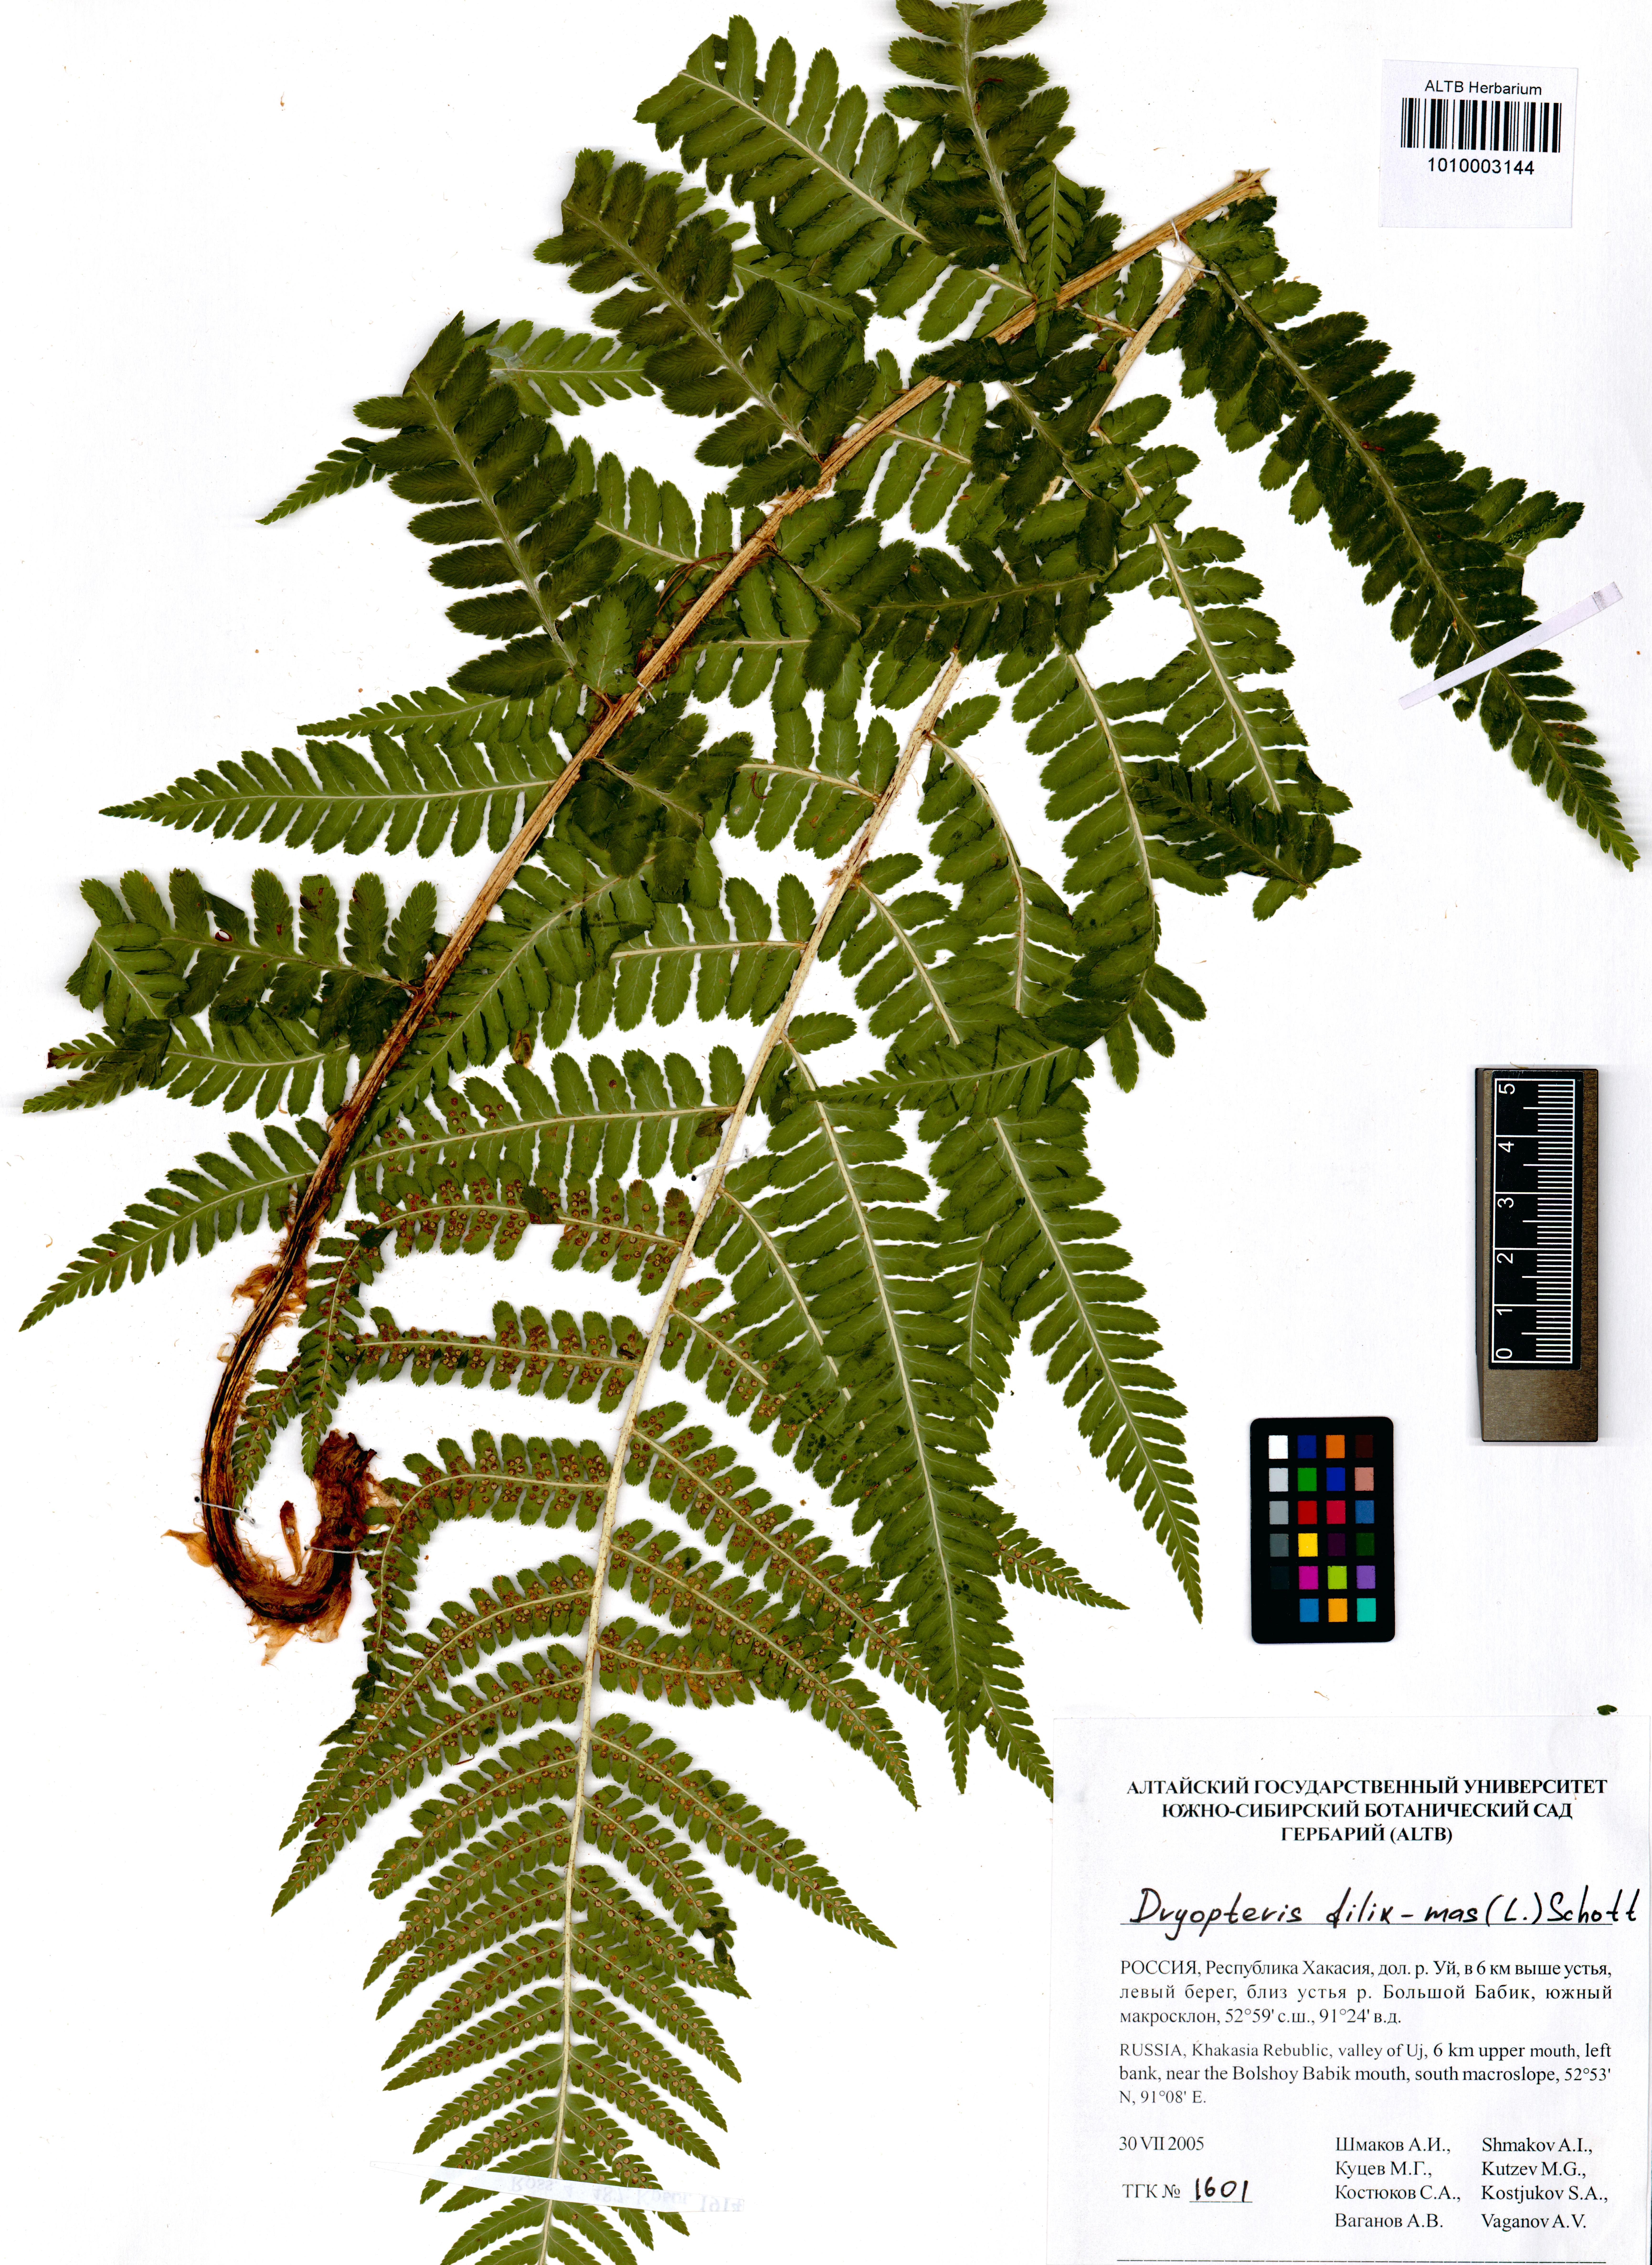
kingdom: Plantae
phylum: Tracheophyta
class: Polypodiopsida
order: Polypodiales
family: Dryopteridaceae
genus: Dryopteris
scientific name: Dryopteris filix-mas
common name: Male fern
